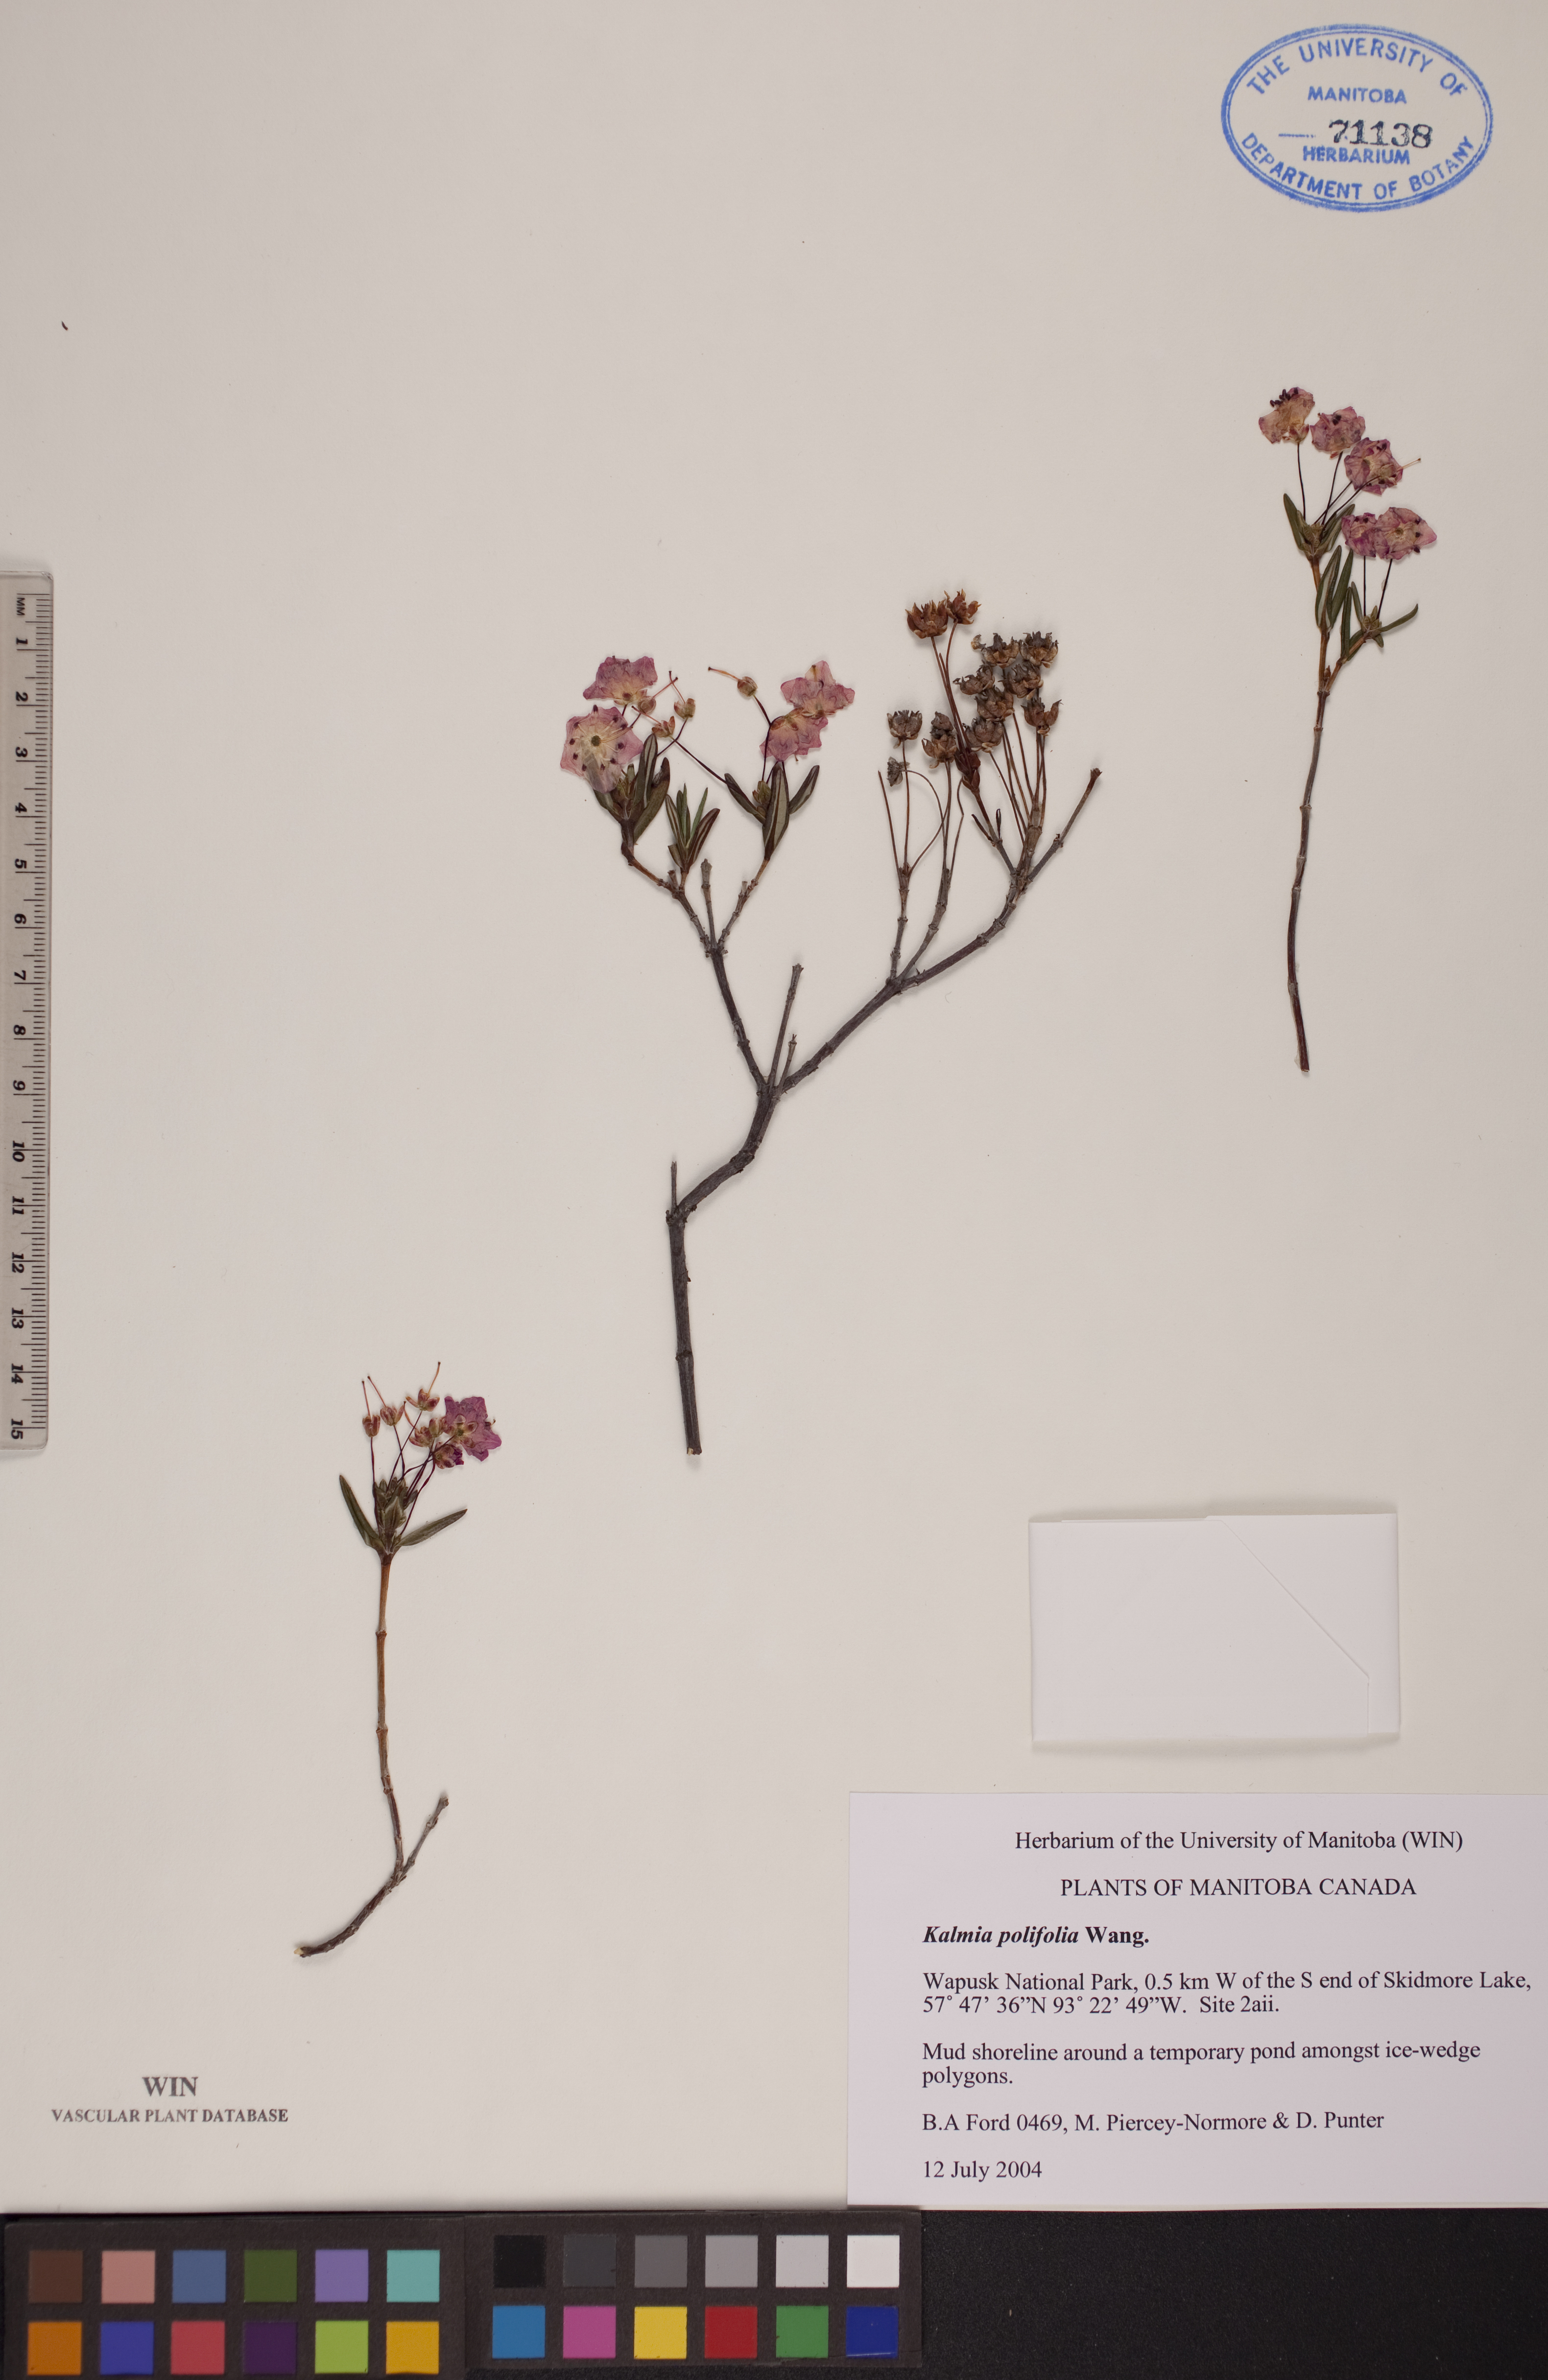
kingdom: Plantae
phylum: Tracheophyta
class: Magnoliopsida
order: Ericales
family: Ericaceae
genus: Kalmia
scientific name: Kalmia polifolia
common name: Bog-laurel
